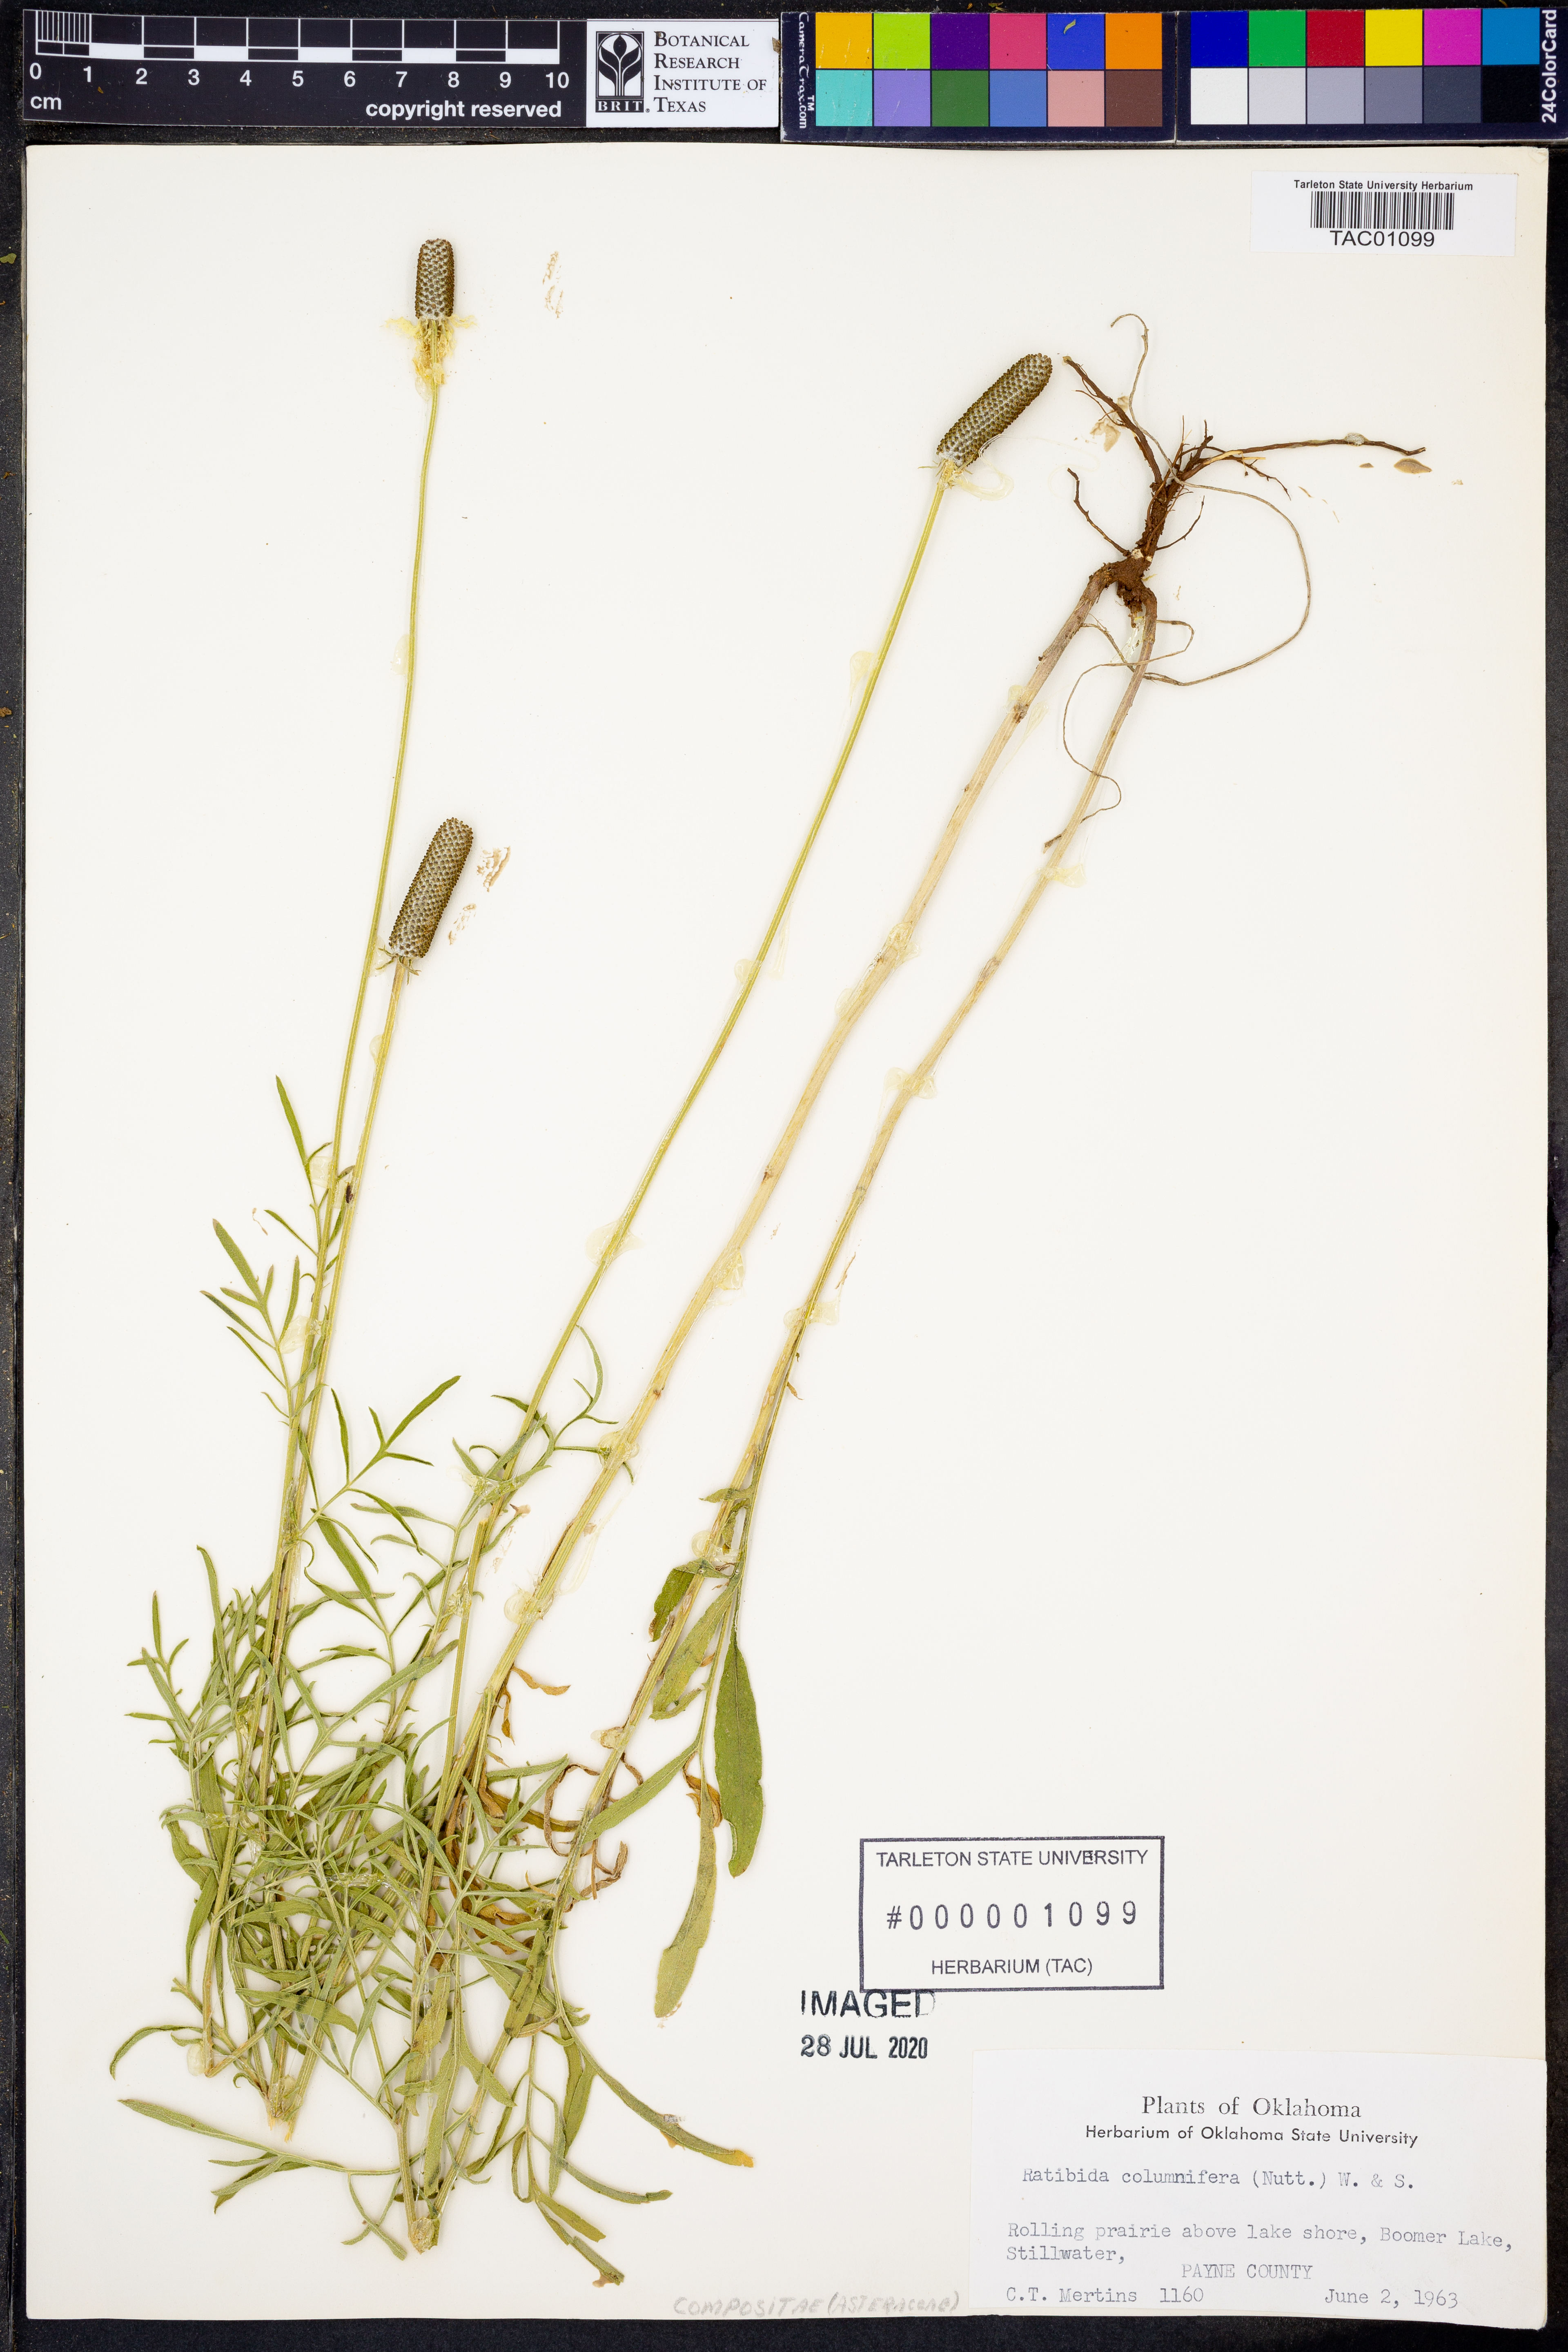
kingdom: Plantae
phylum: Tracheophyta
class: Magnoliopsida
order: Asterales
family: Asteraceae
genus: Ratibida
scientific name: Ratibida columnifera
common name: Prairie coneflower
